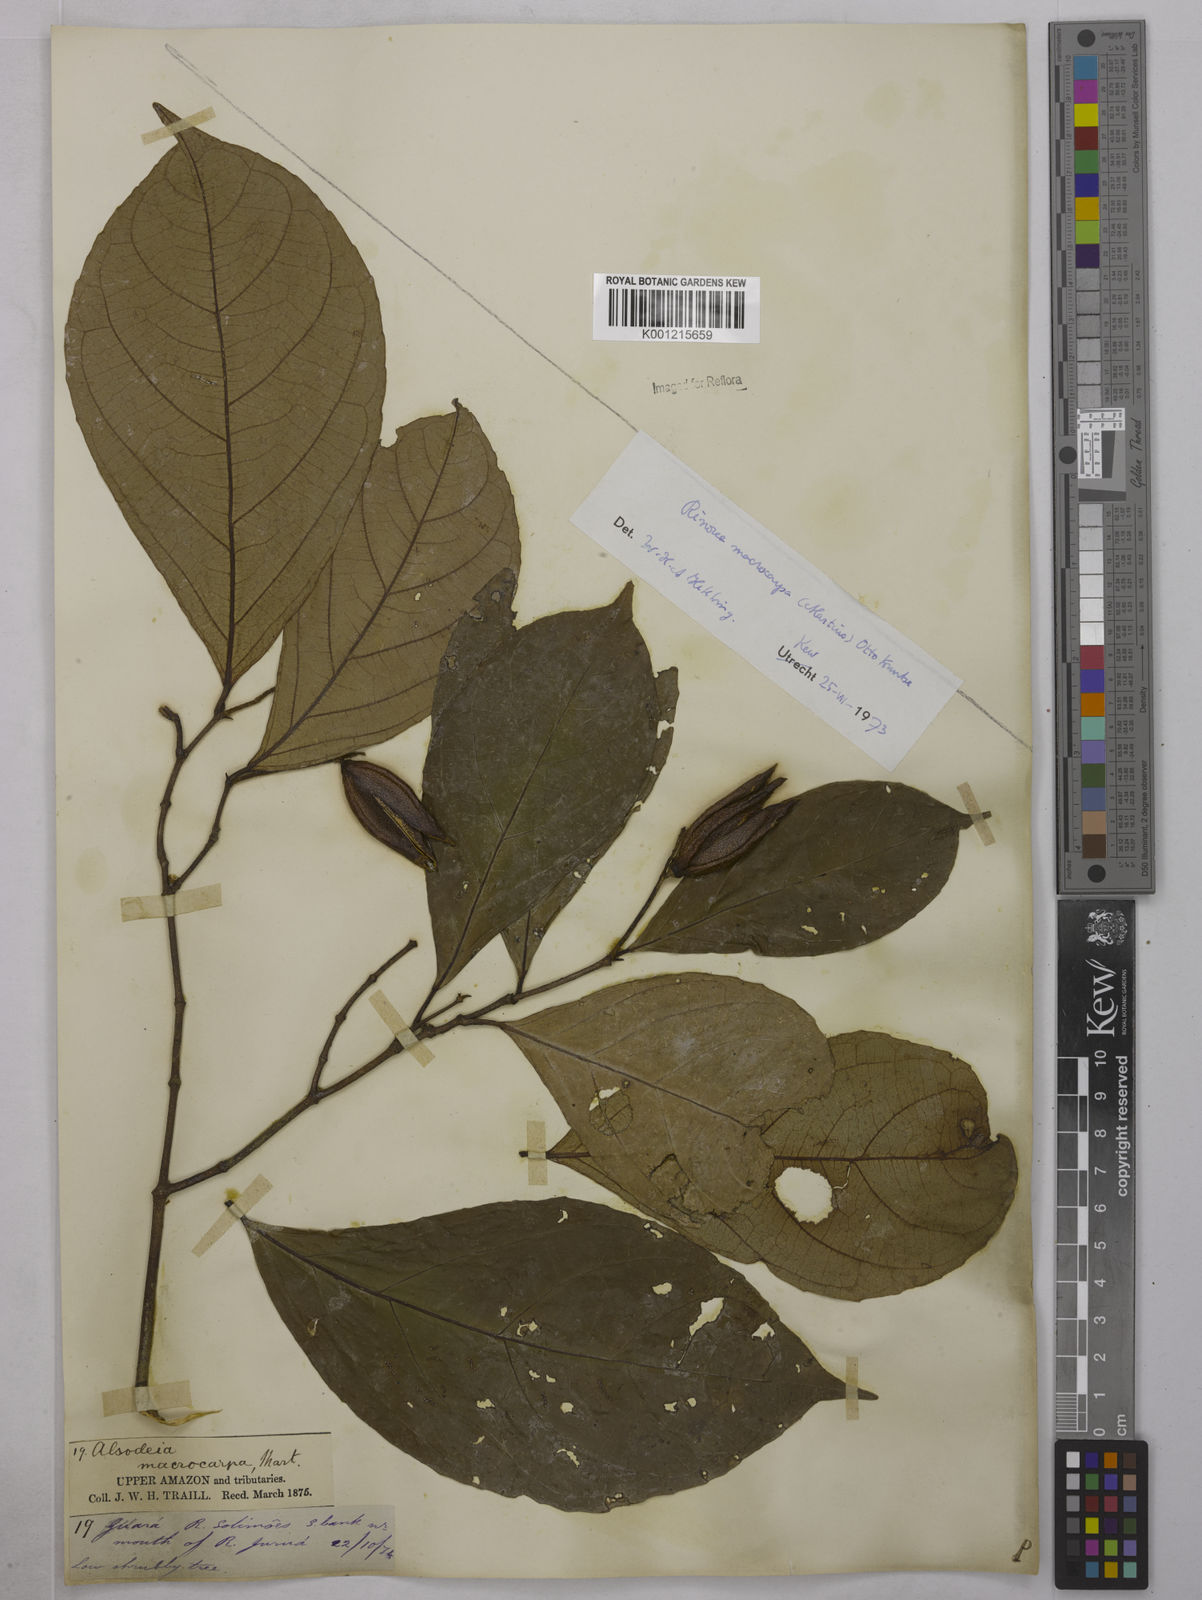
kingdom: Plantae
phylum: Tracheophyta
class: Magnoliopsida
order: Malpighiales
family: Violaceae
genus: Rinorea
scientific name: Rinorea macrocarpa
